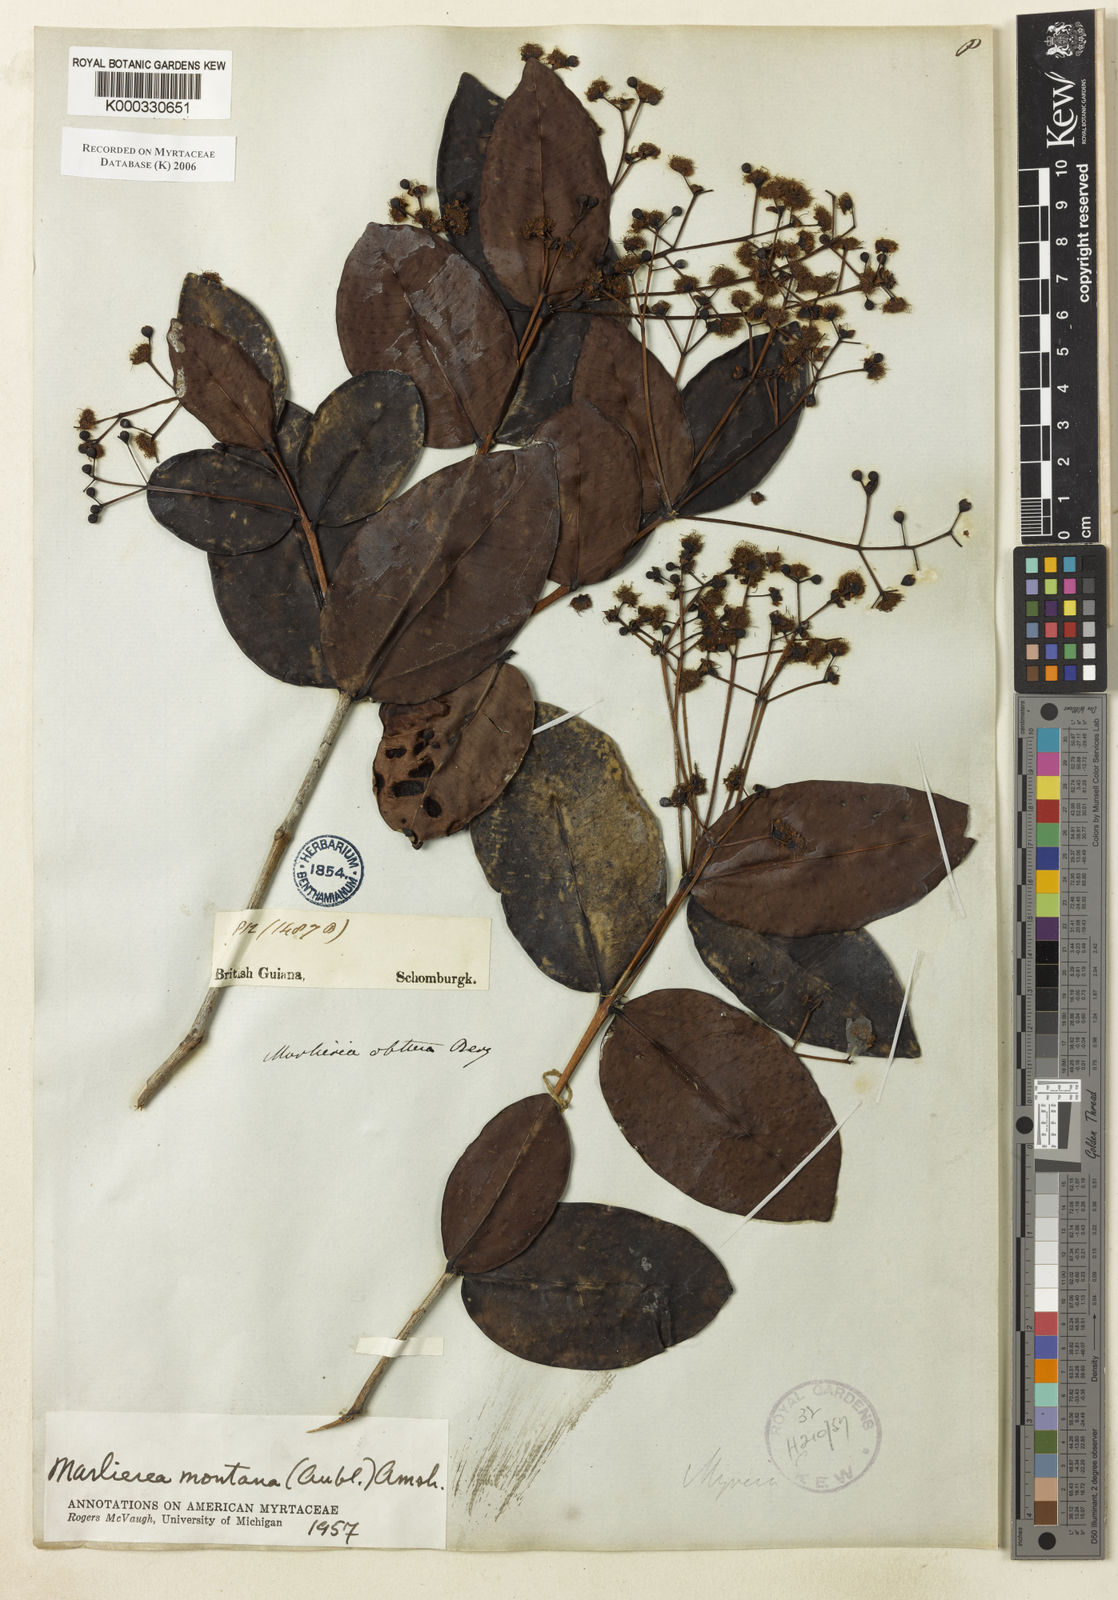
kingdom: Plantae
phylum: Tracheophyta
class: Magnoliopsida
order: Myrtales
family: Myrtaceae
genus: Myrcia
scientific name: Myrcia neomontana
